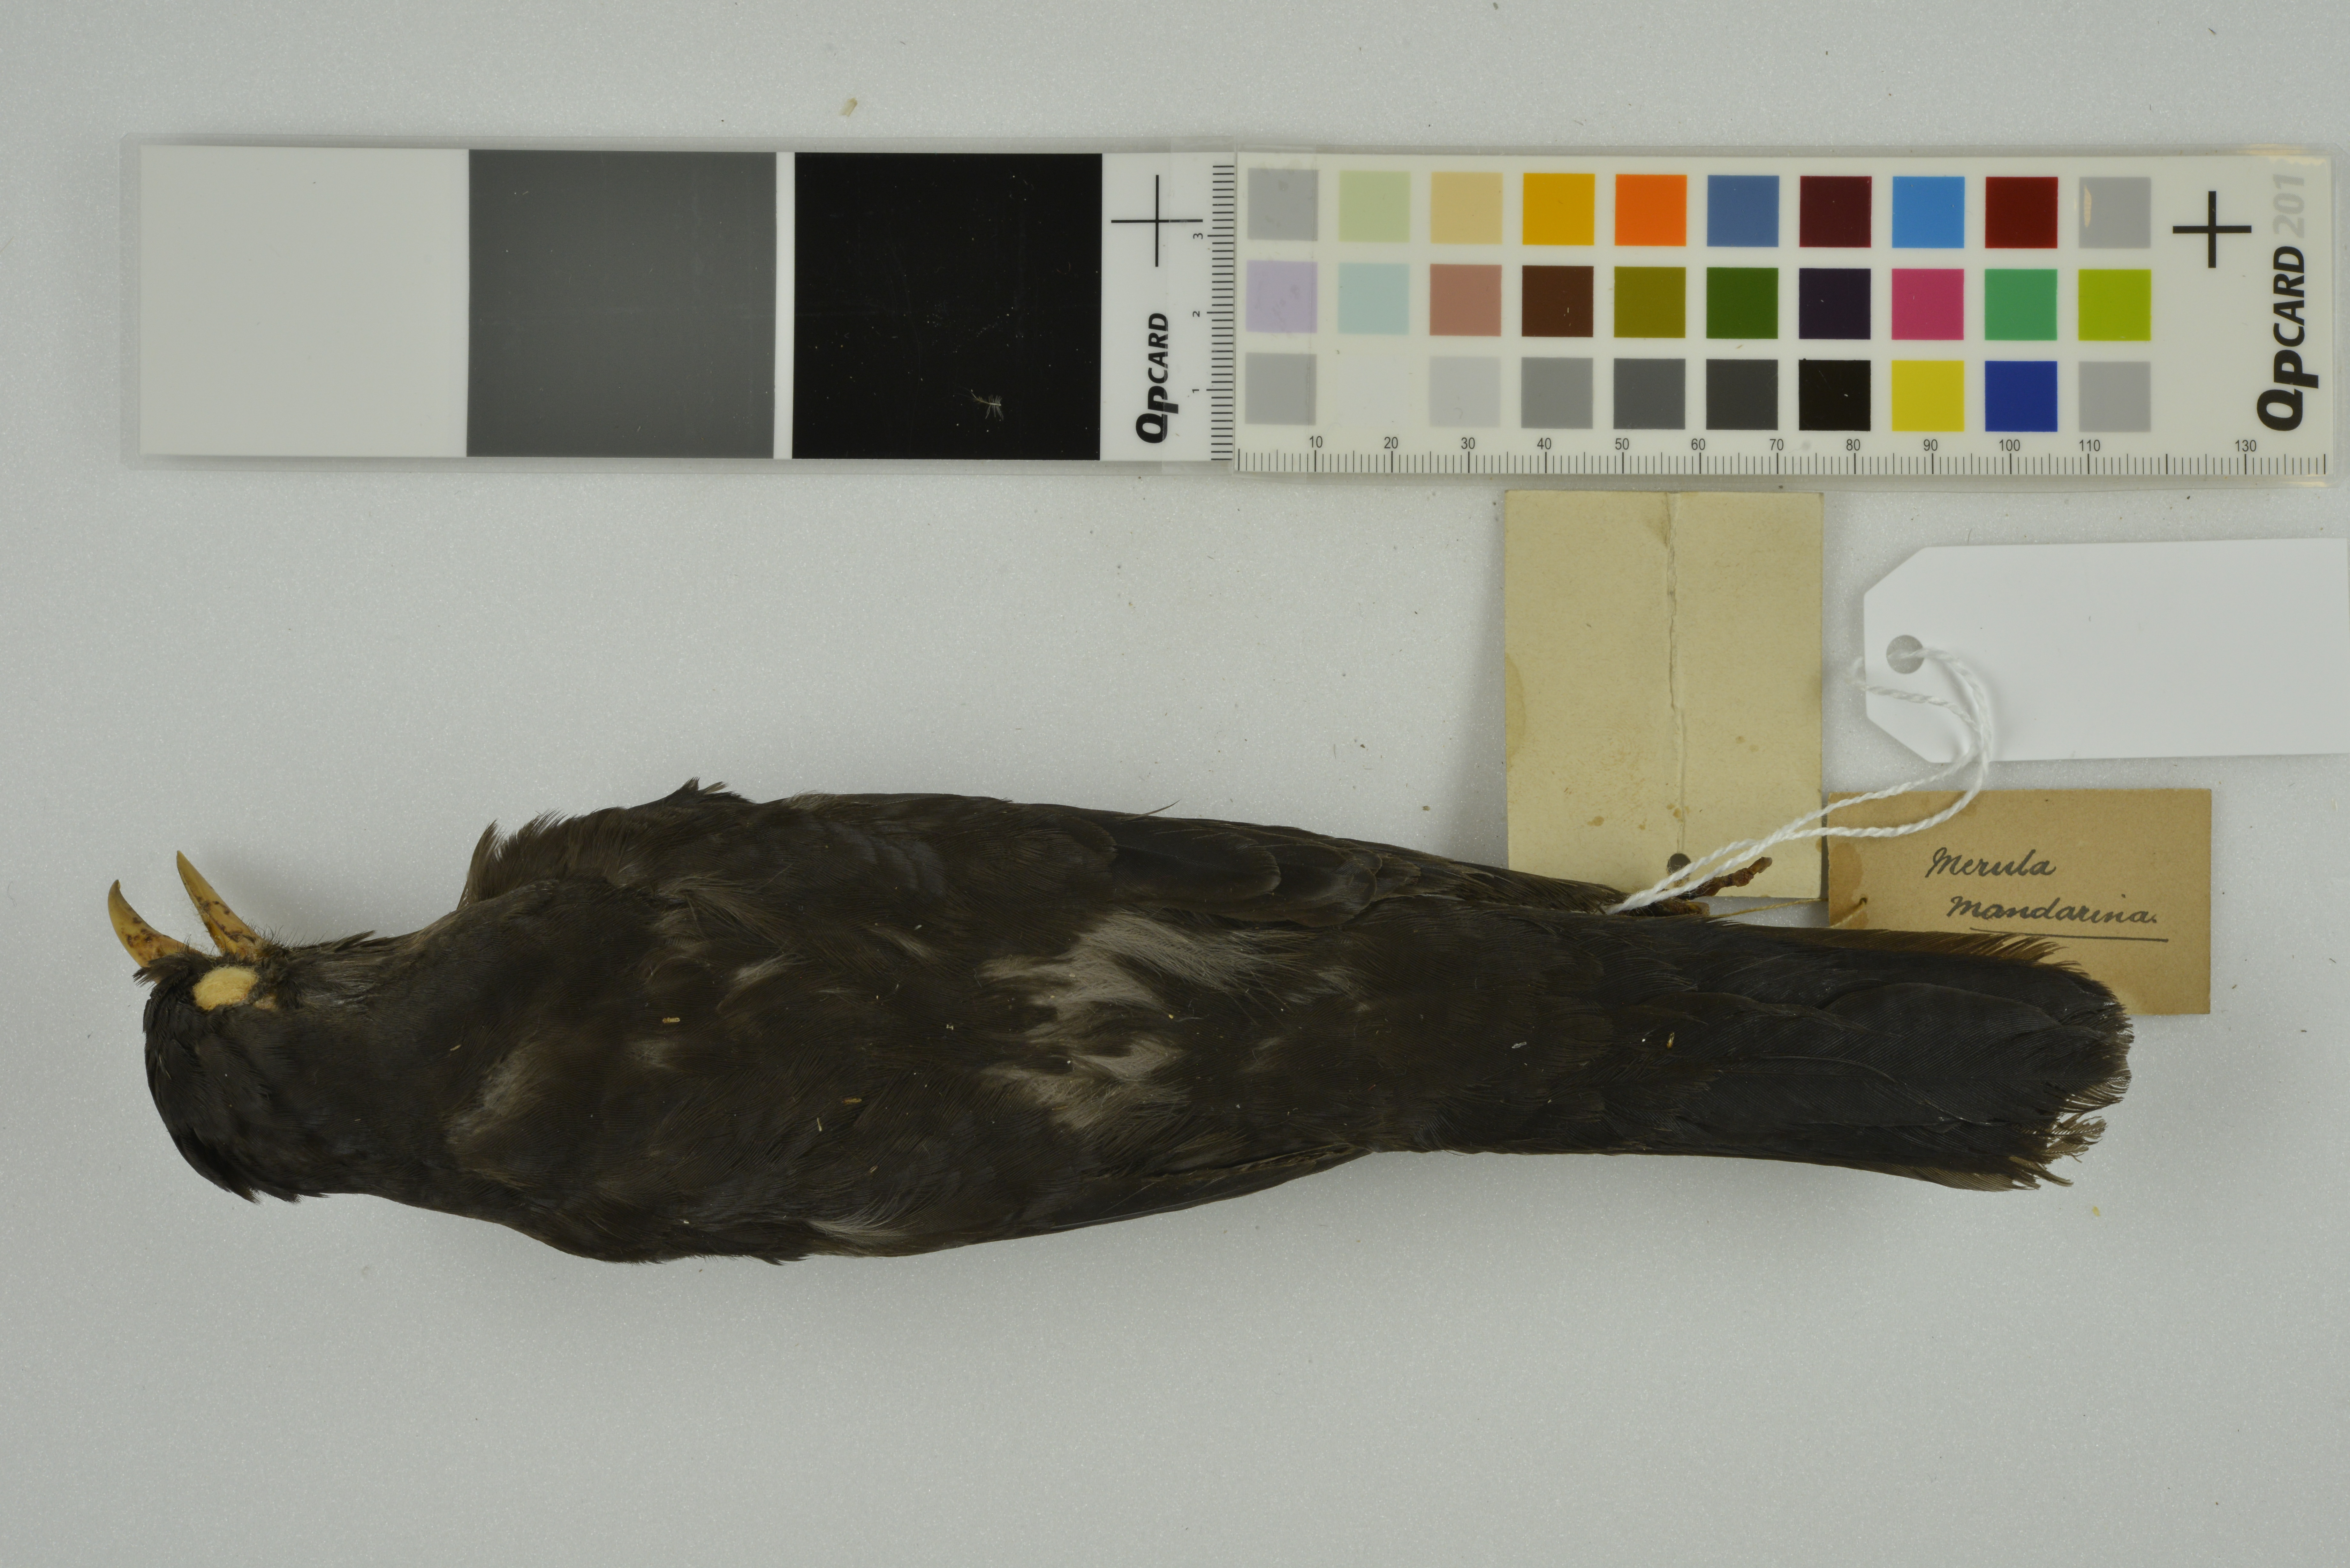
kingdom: Animalia
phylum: Chordata
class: Aves
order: Passeriformes
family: Turdidae
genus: Turdus
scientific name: Turdus mandarinus
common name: Chinese blackbird
